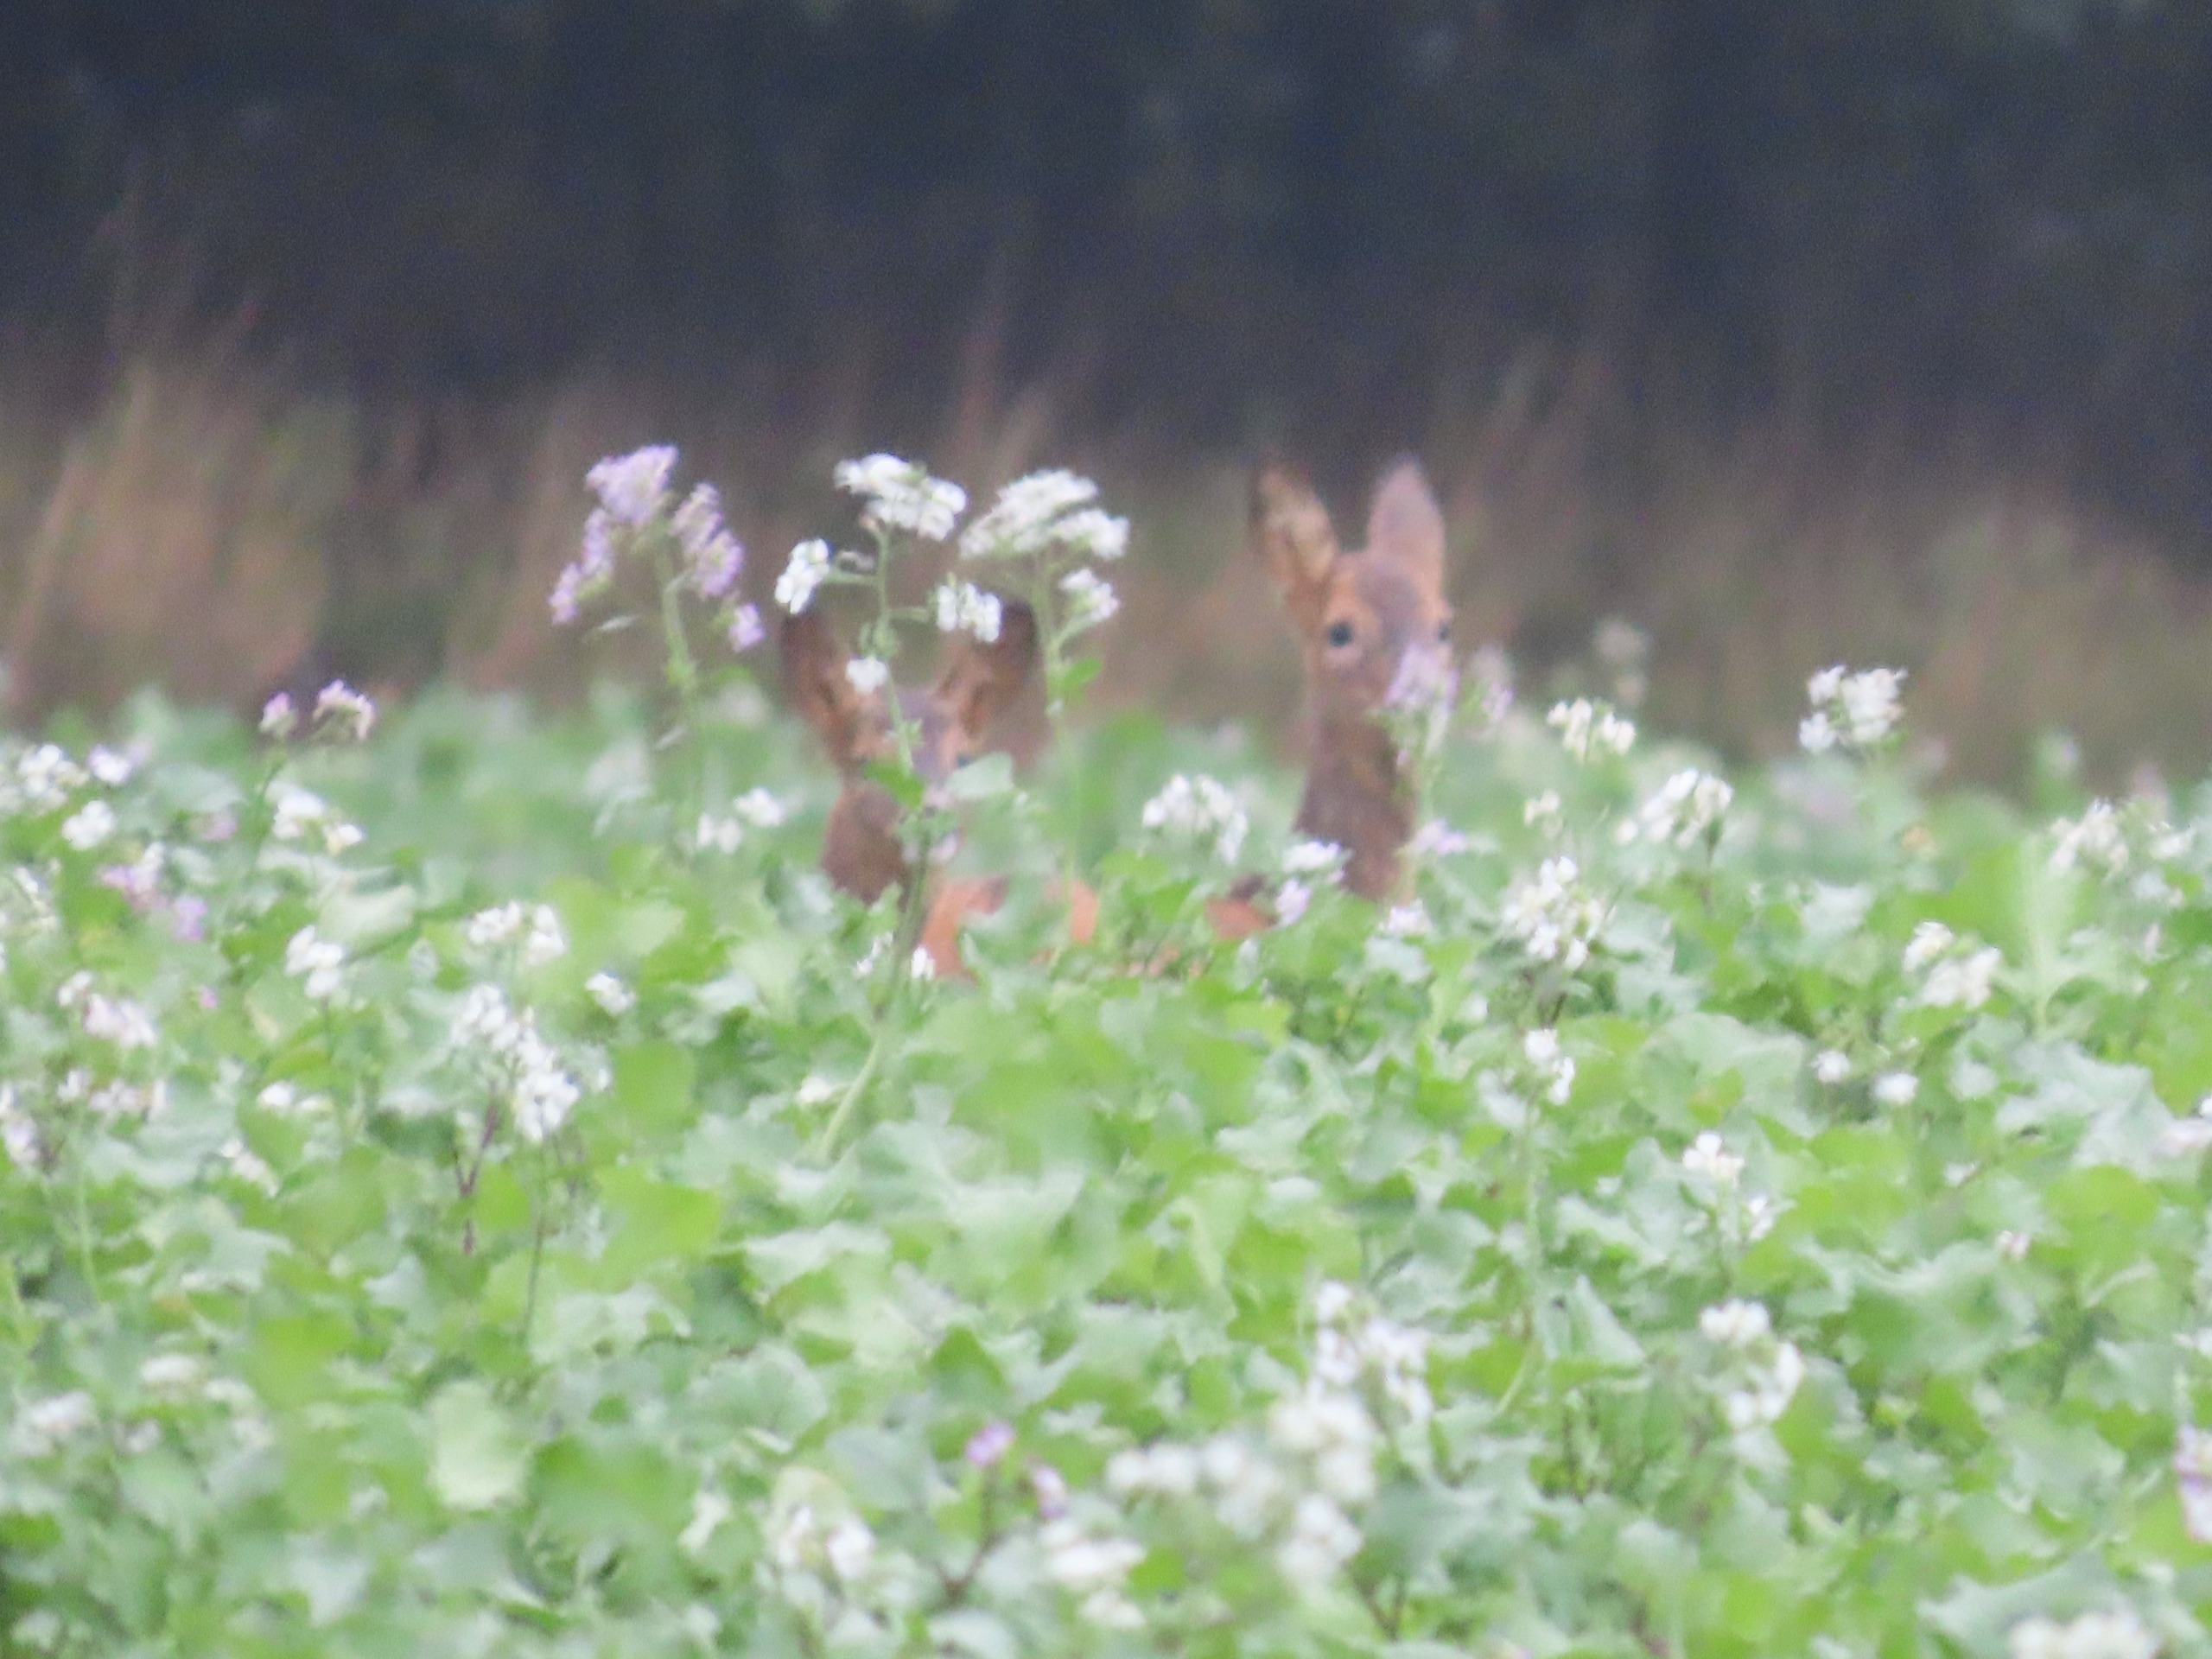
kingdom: Animalia
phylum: Chordata
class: Mammalia
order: Artiodactyla
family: Cervidae
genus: Capreolus
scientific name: Capreolus capreolus
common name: Rådyr
